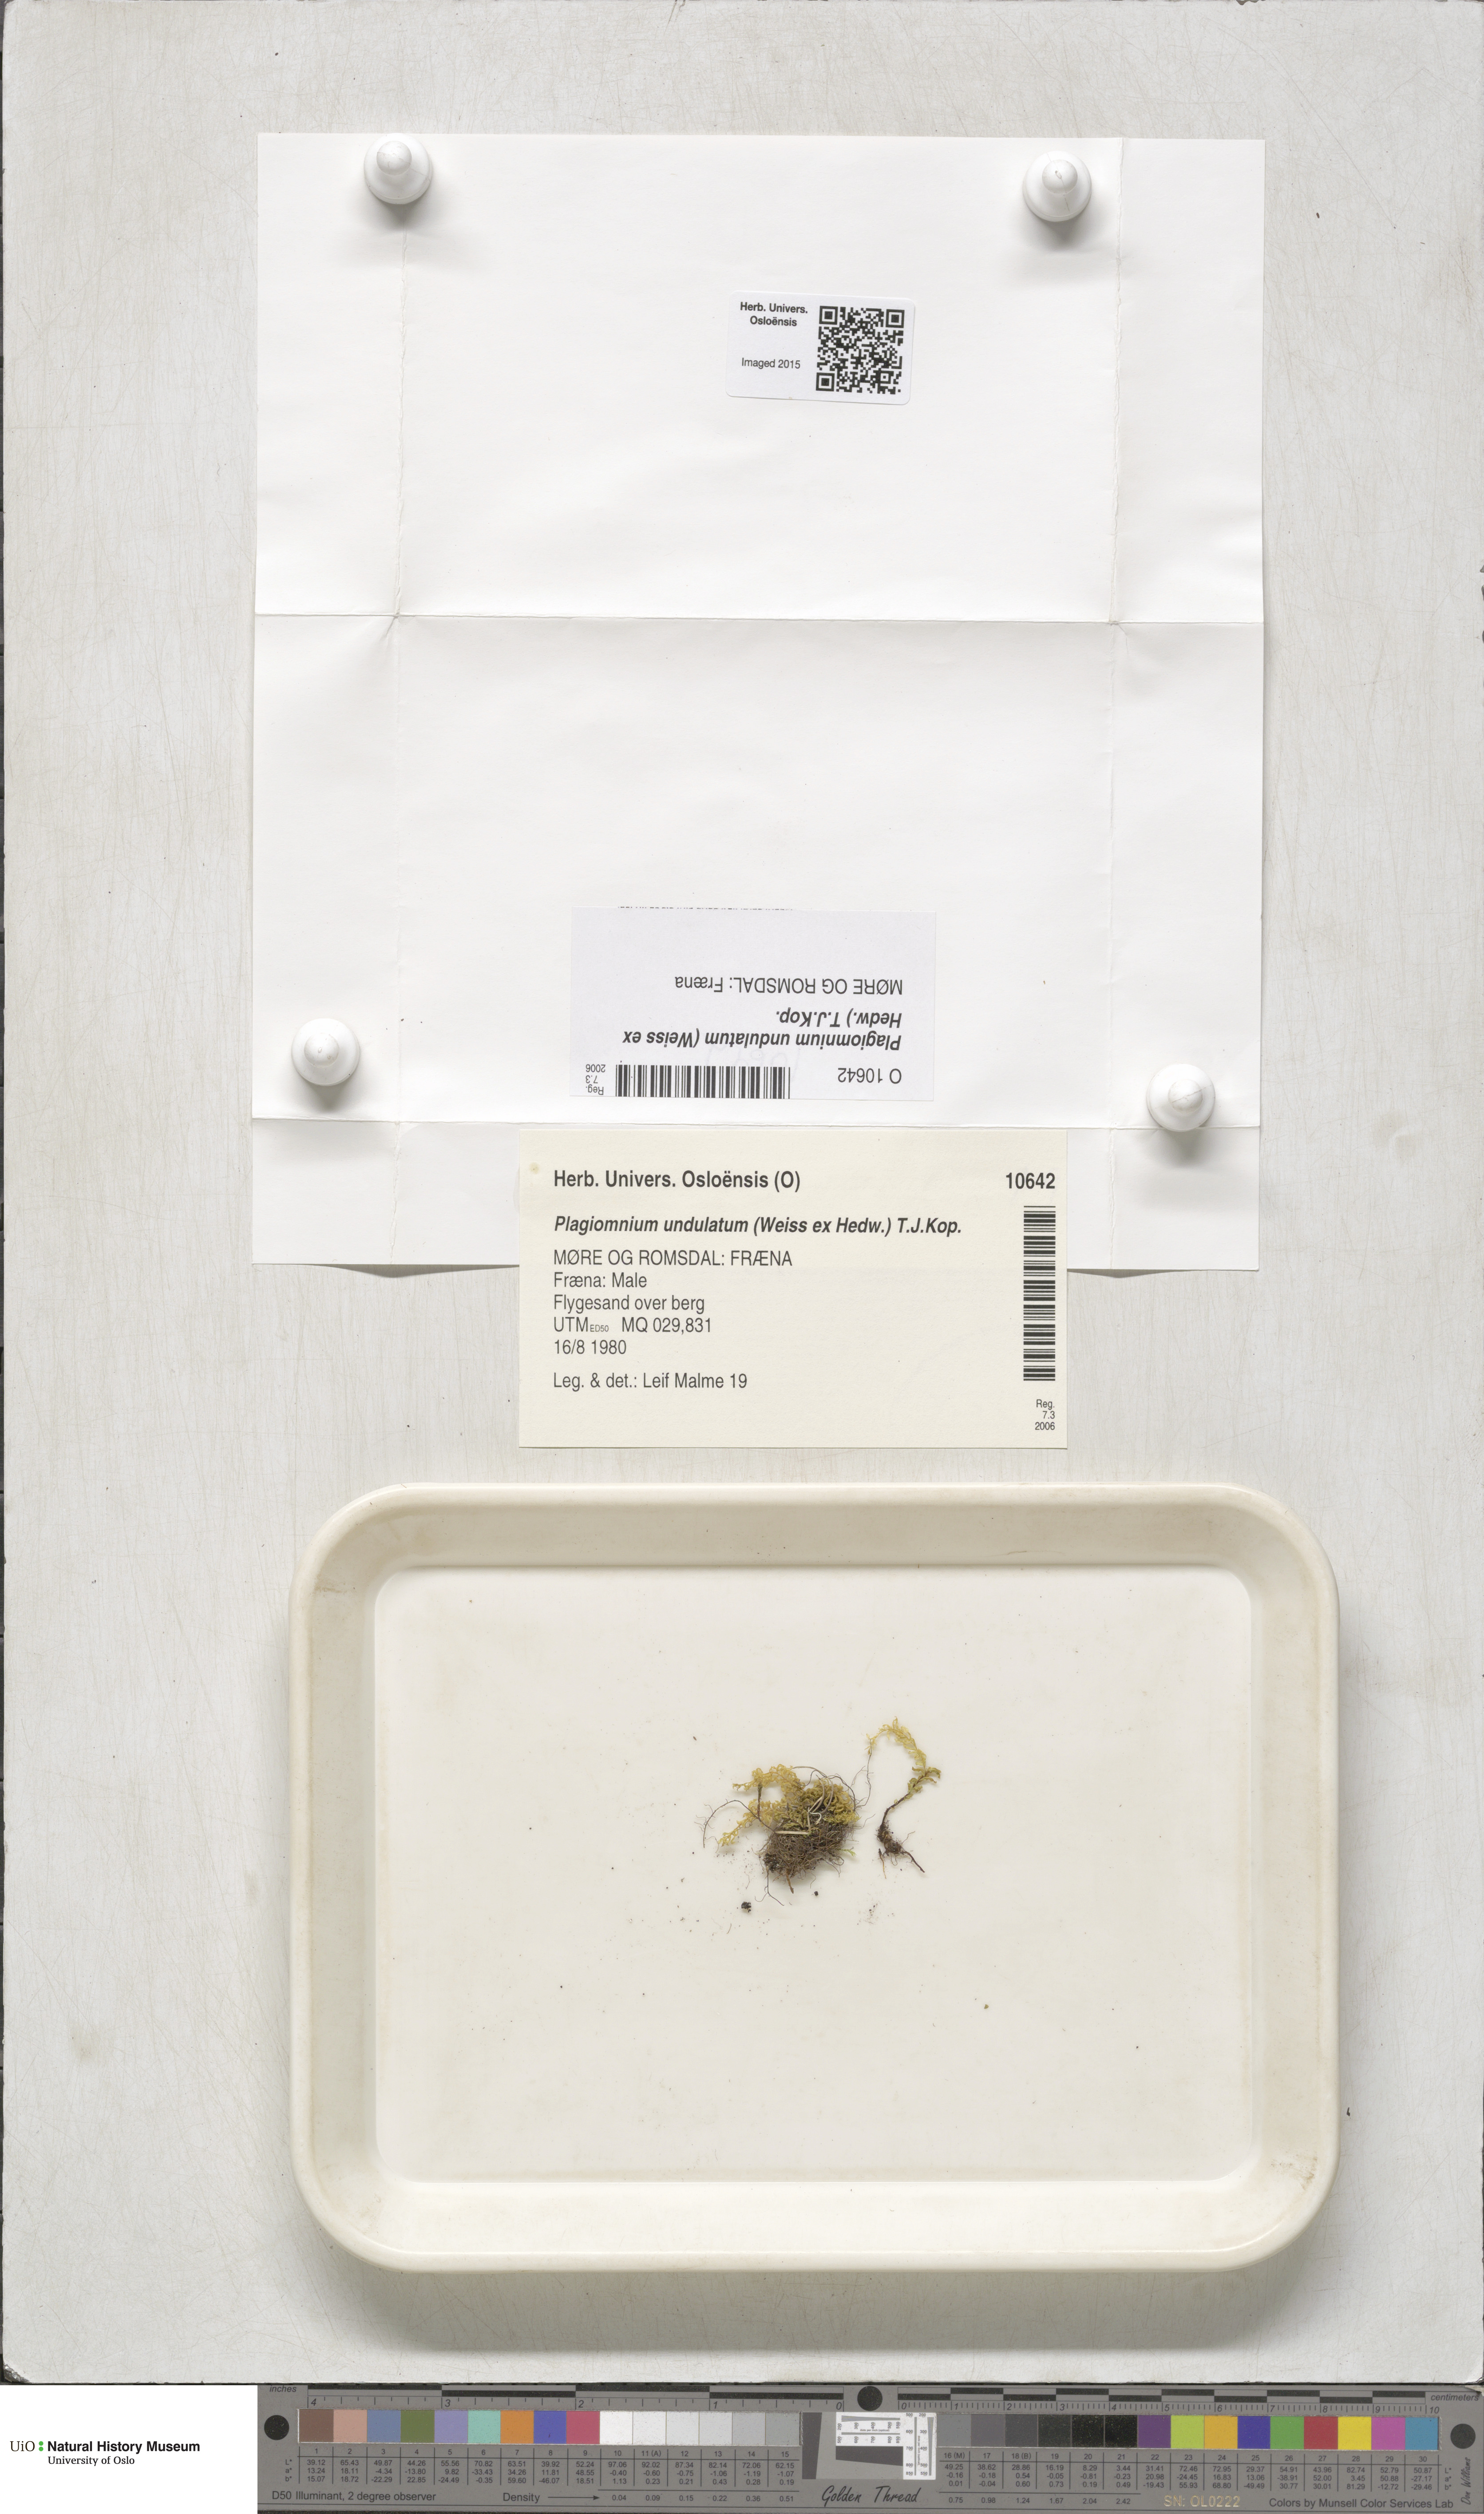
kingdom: Plantae
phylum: Bryophyta
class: Bryopsida
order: Bryales
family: Mniaceae
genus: Plagiomnium
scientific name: Plagiomnium undulatum
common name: Hart's-tongue thyme-moss
